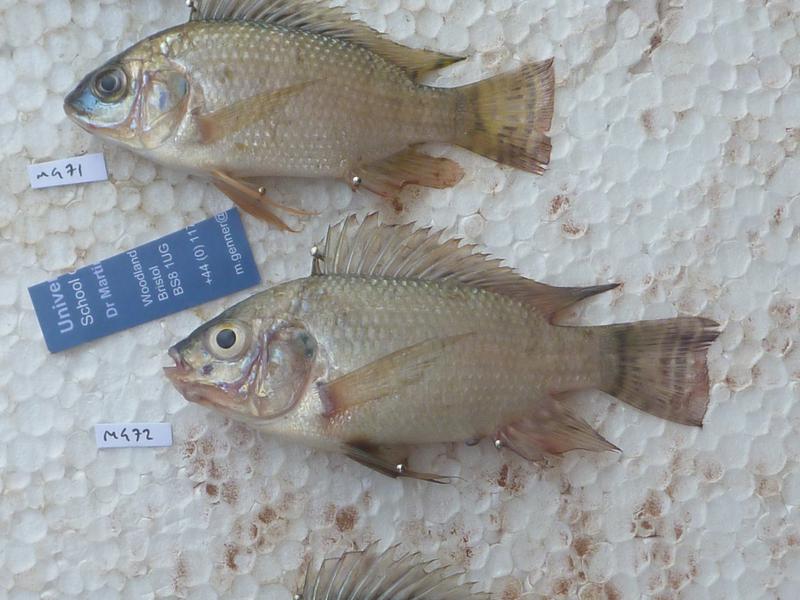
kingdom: Animalia
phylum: Chordata
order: Perciformes
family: Cichlidae
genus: Oreochromis
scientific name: Oreochromis niloticus
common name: Nile tilapia
